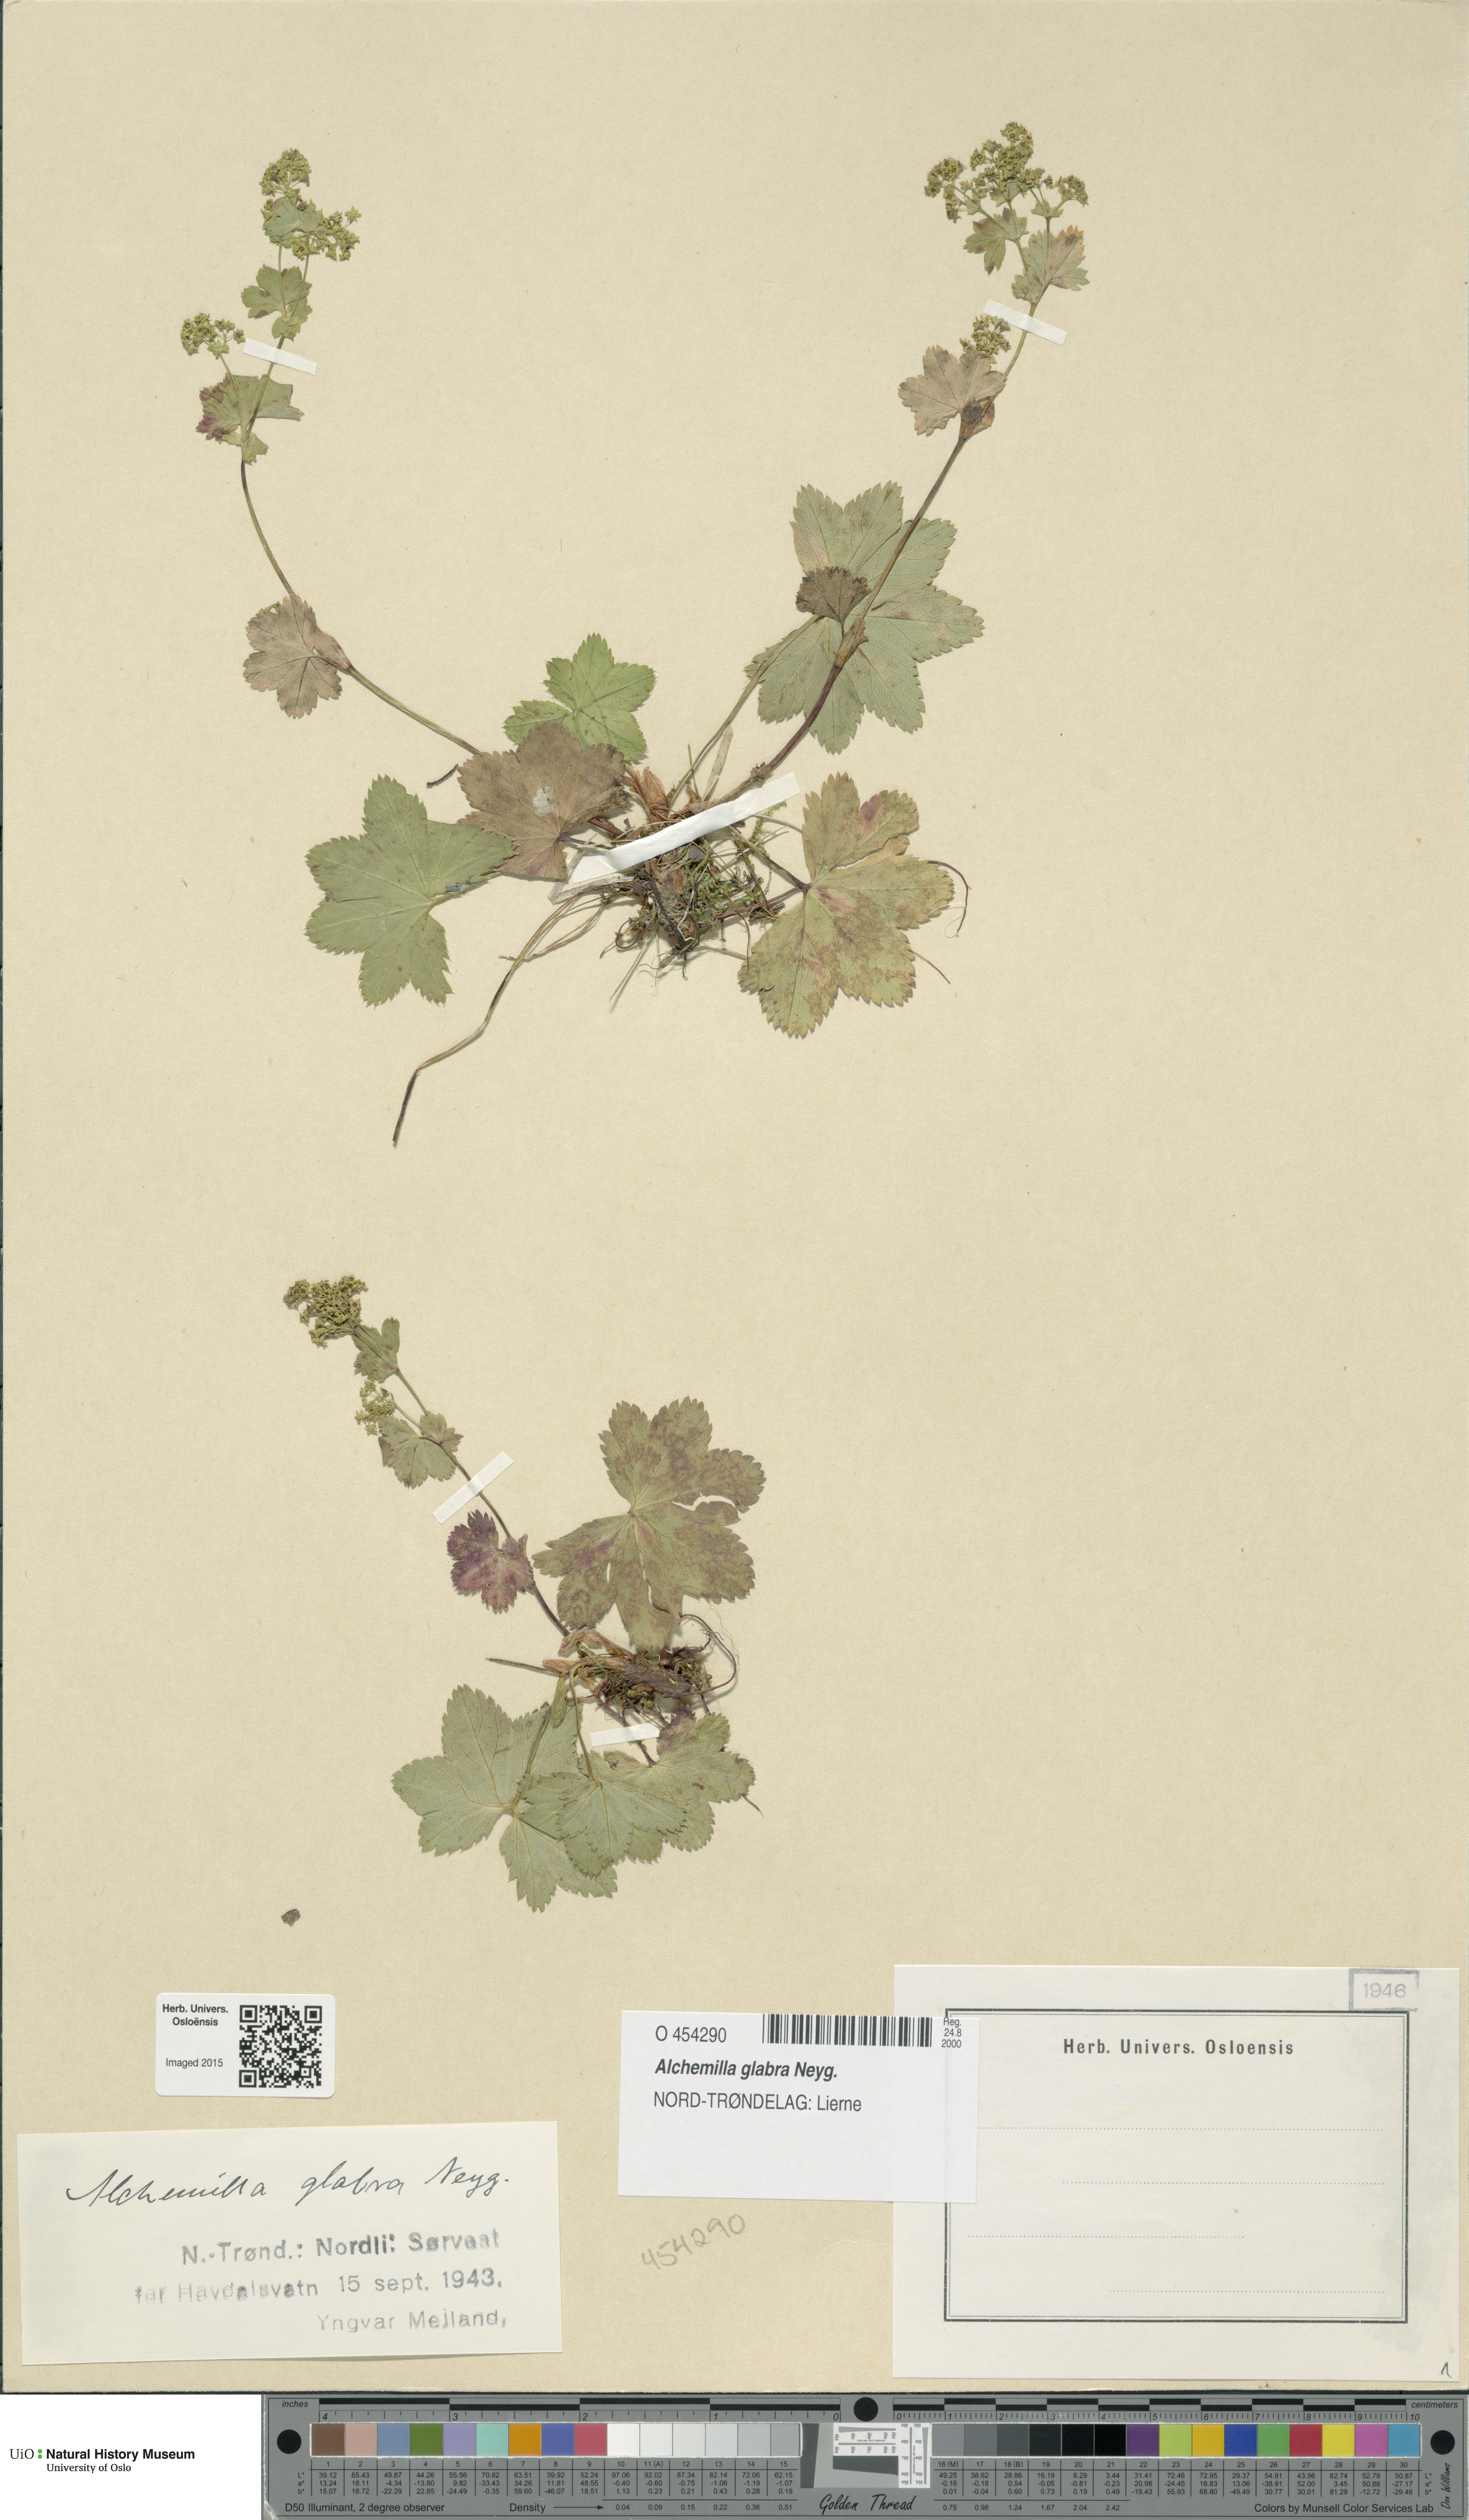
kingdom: Plantae
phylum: Tracheophyta
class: Magnoliopsida
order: Rosales
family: Rosaceae
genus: Alchemilla
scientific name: Alchemilla glabra
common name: Smooth lady's-mantle
